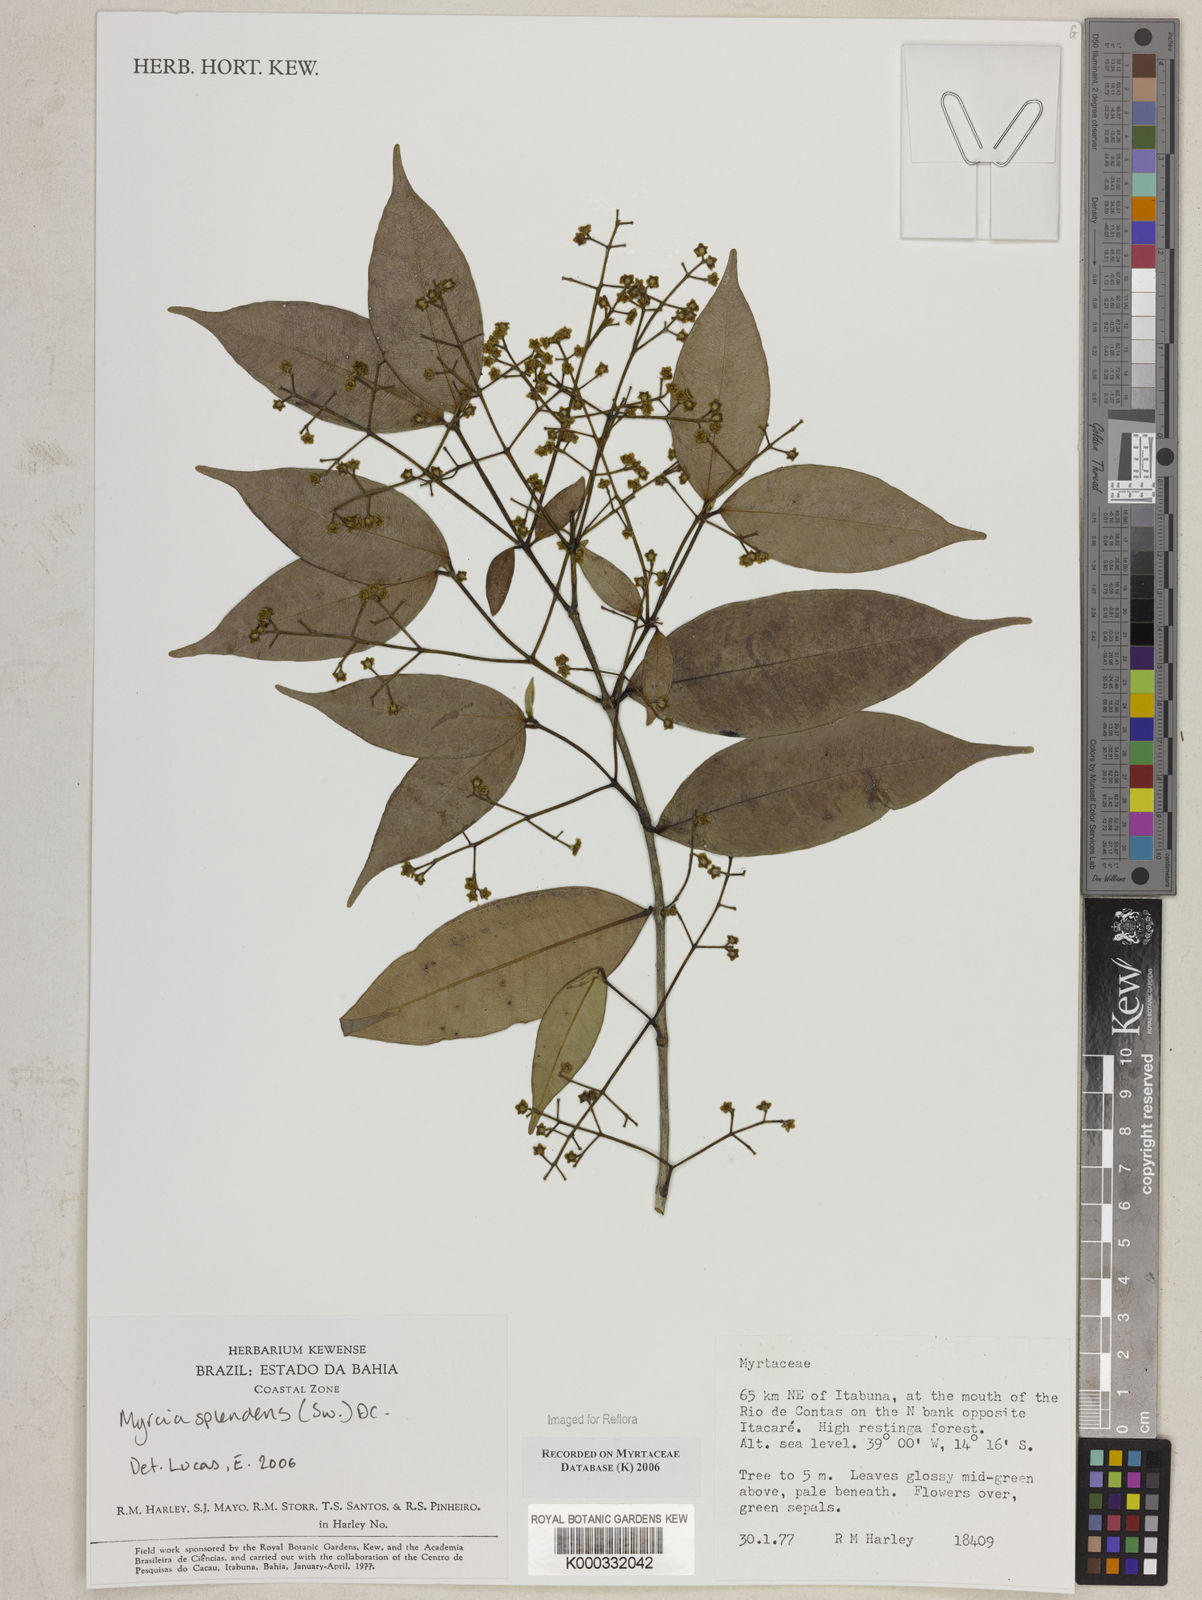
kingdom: Plantae
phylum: Tracheophyta
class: Magnoliopsida
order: Myrtales
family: Myrtaceae
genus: Myrcia
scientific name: Myrcia splendens
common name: Surinam cherry
